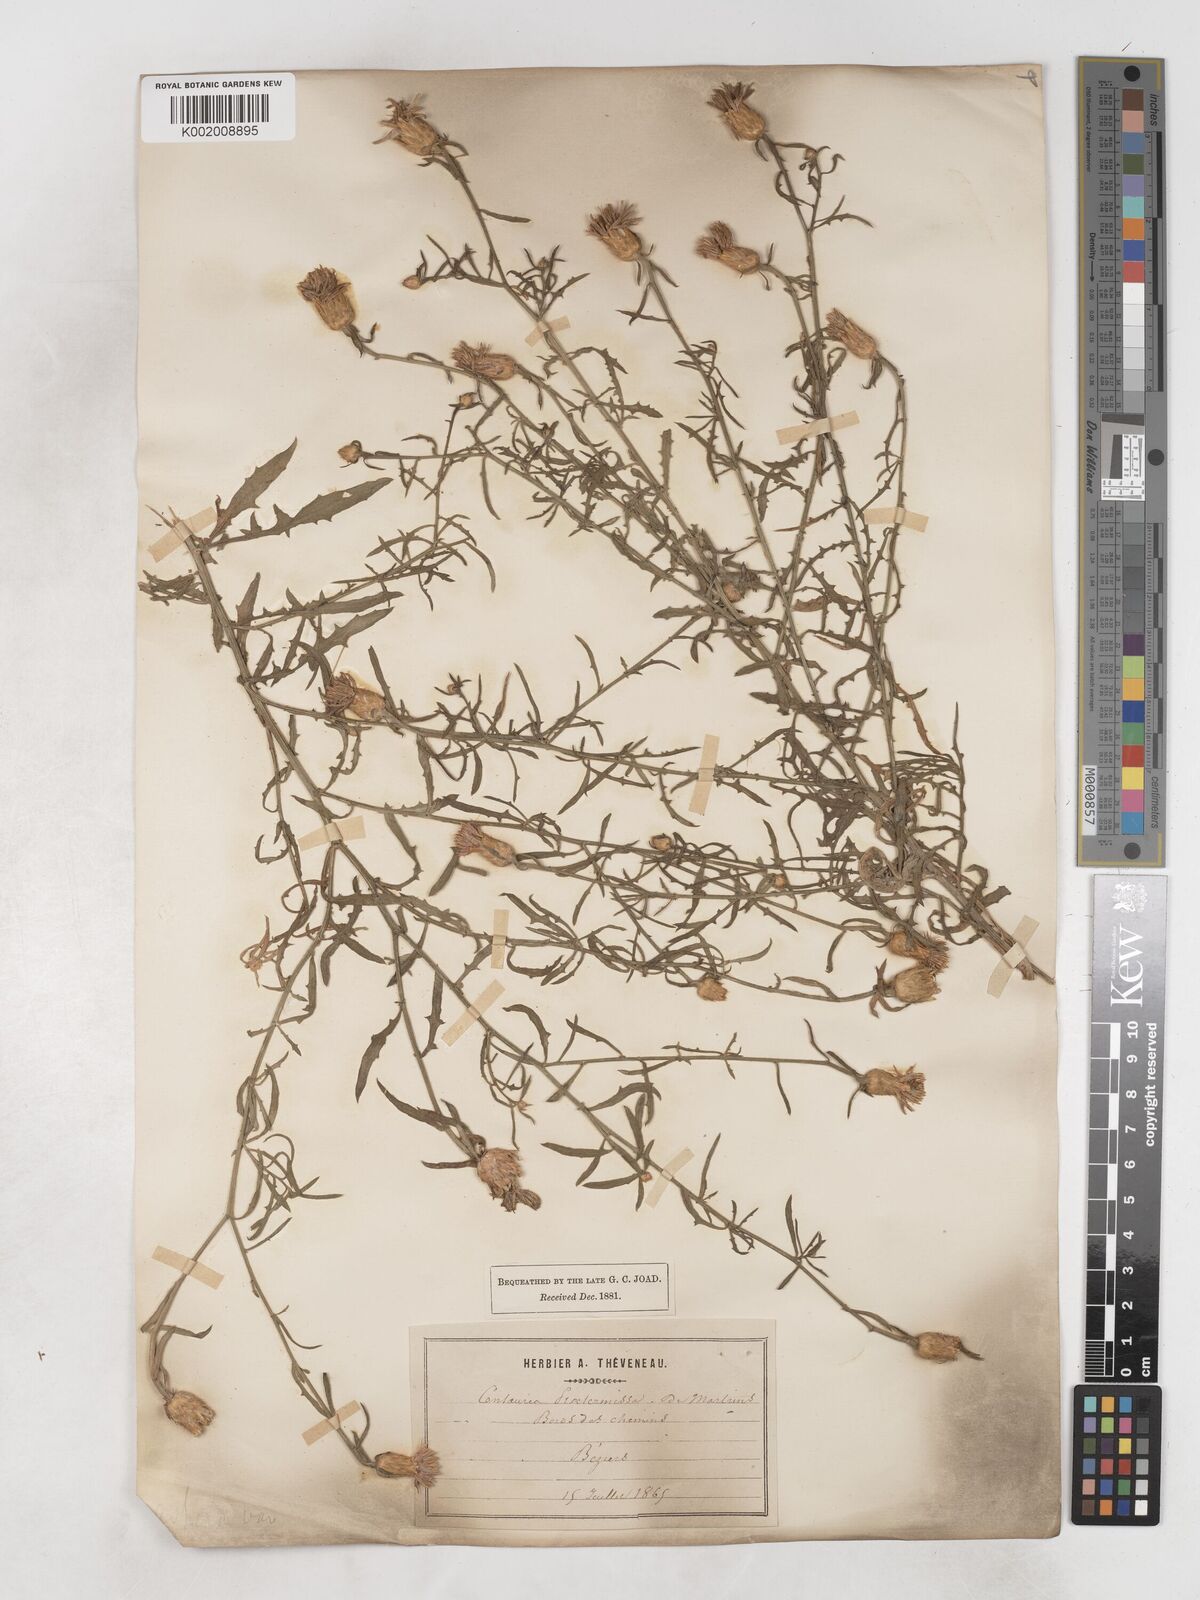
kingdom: Plantae
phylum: Tracheophyta
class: Magnoliopsida
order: Asterales
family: Asteraceae
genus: Centaurea
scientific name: Centaurea aspera
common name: Rough star-thistle
